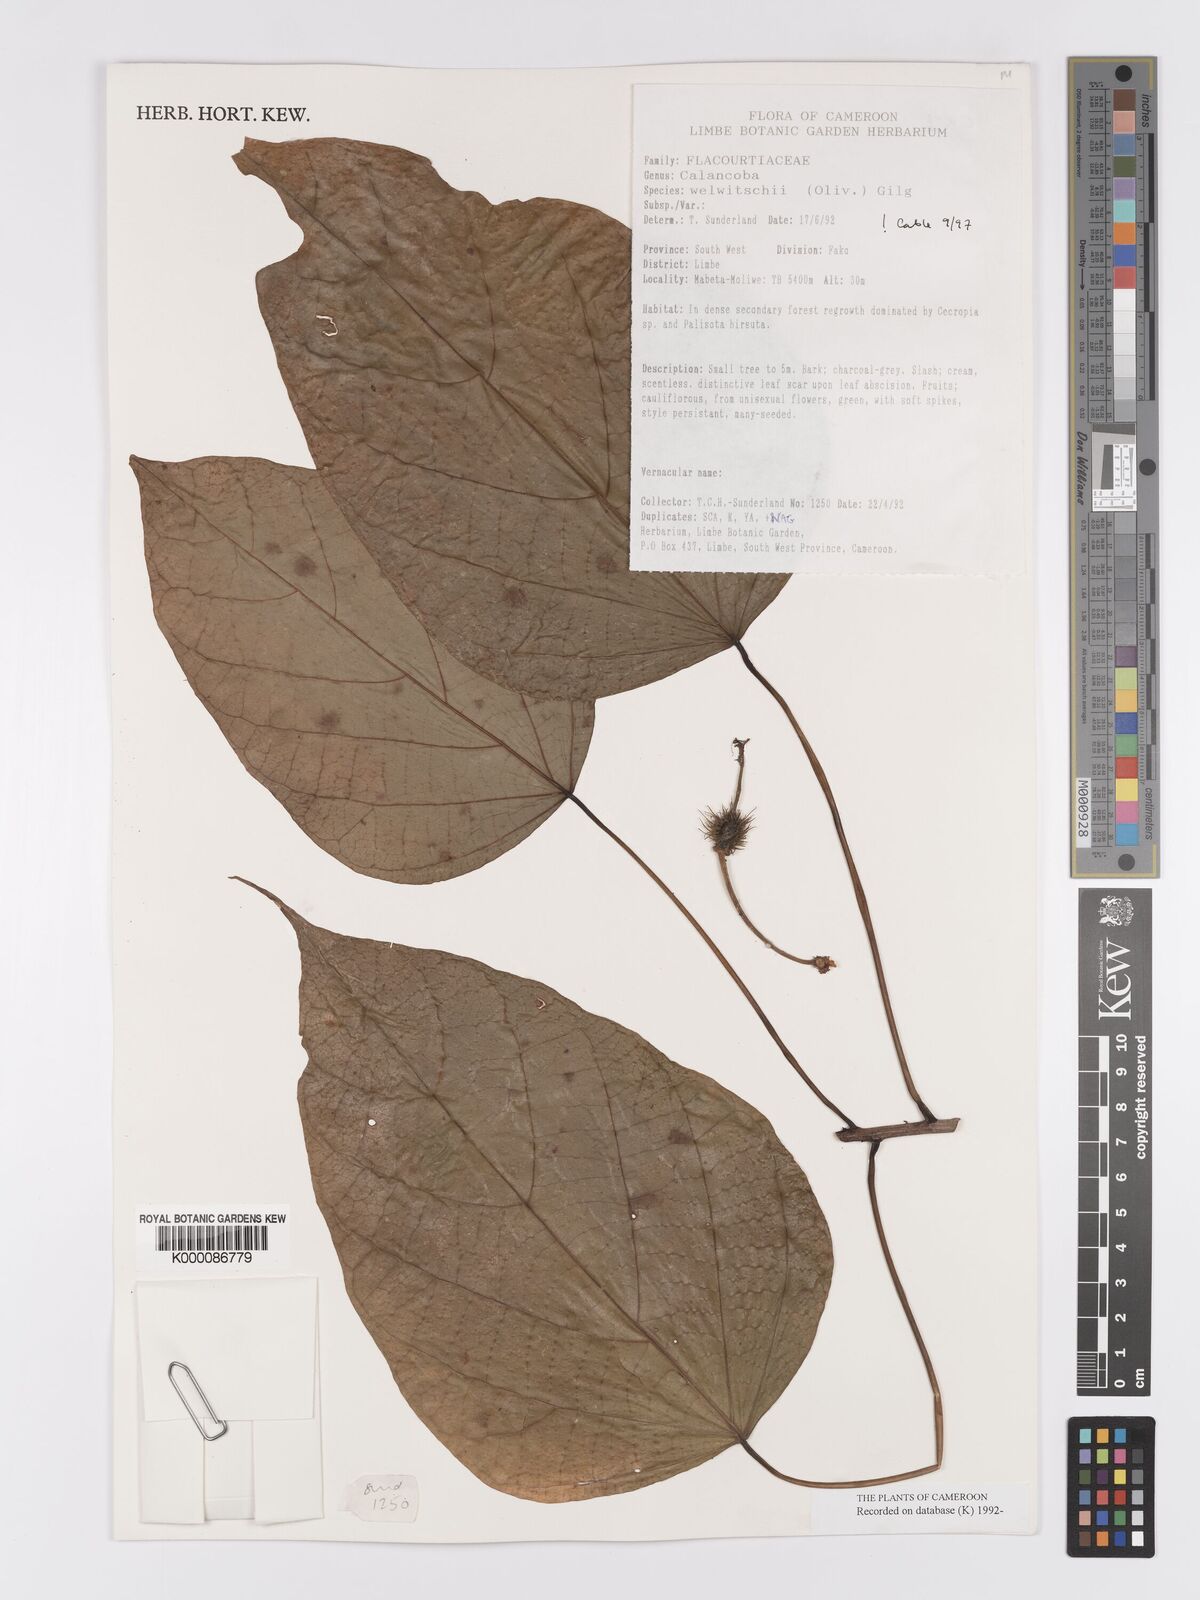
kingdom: Plantae
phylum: Tracheophyta
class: Magnoliopsida
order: Malpighiales
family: Achariaceae
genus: Caloncoba
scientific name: Caloncoba welwitschii
